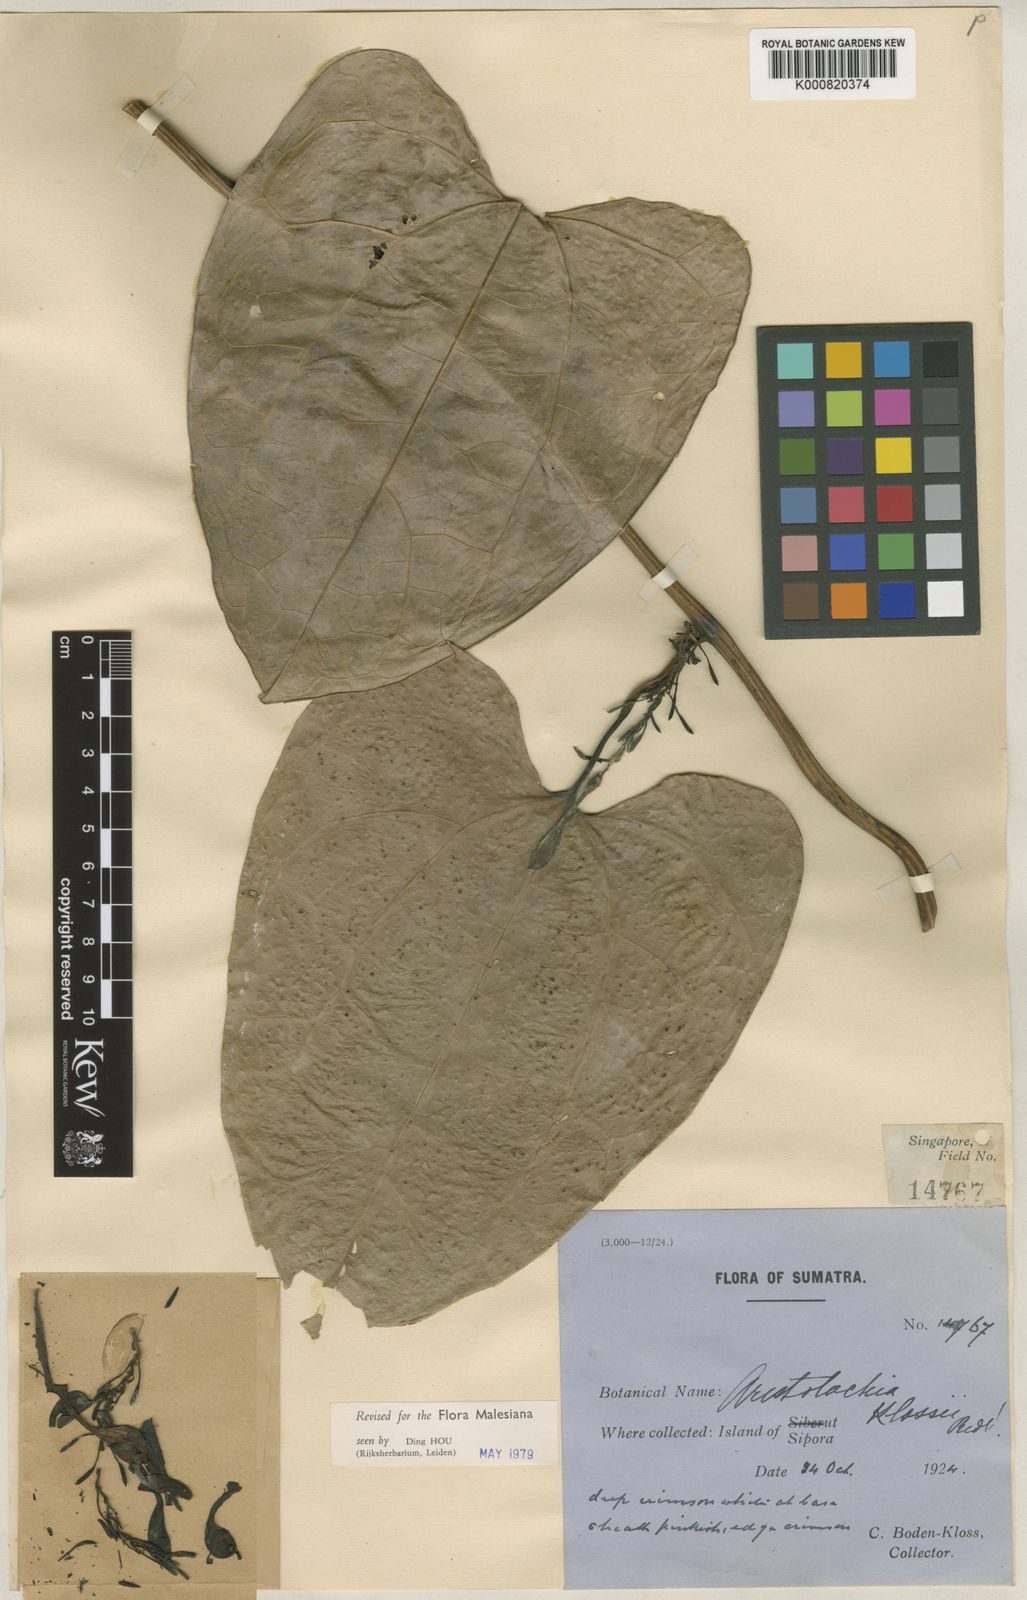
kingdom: Plantae
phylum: Tracheophyta
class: Magnoliopsida
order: Piperales
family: Aristolochiaceae
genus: Aristolochia
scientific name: Aristolochia klossii
